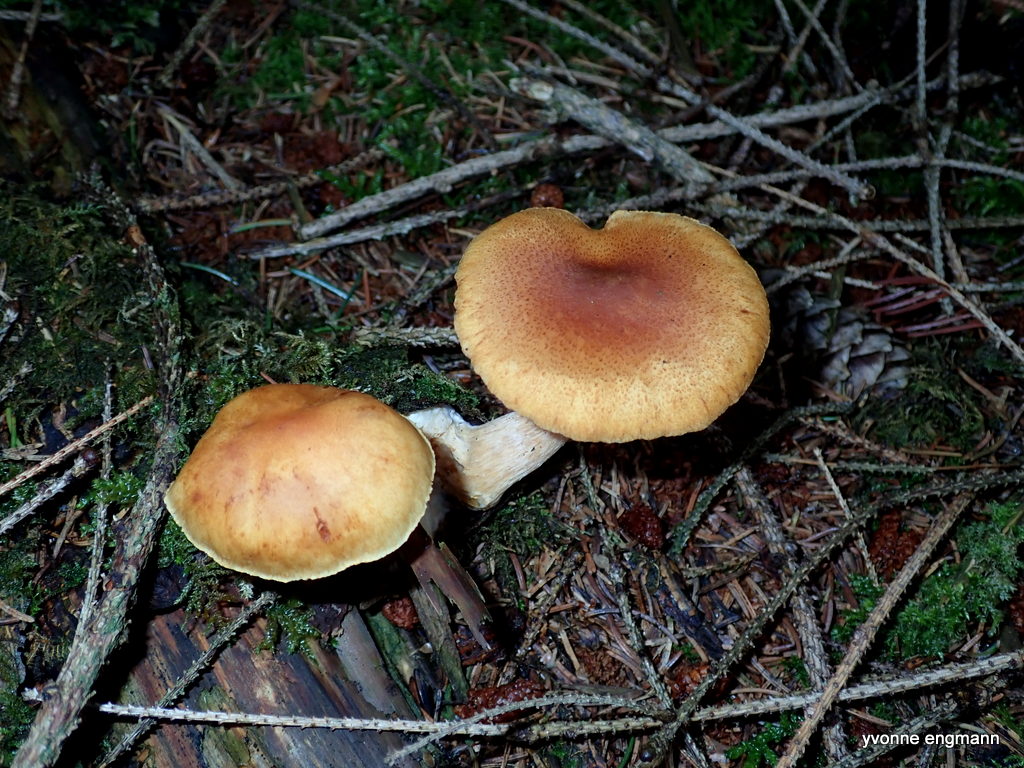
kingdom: Fungi
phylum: Basidiomycota
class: Agaricomycetes
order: Agaricales
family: Hymenogastraceae
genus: Gymnopilus
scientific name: Gymnopilus penetrans
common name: plettet flammehat
